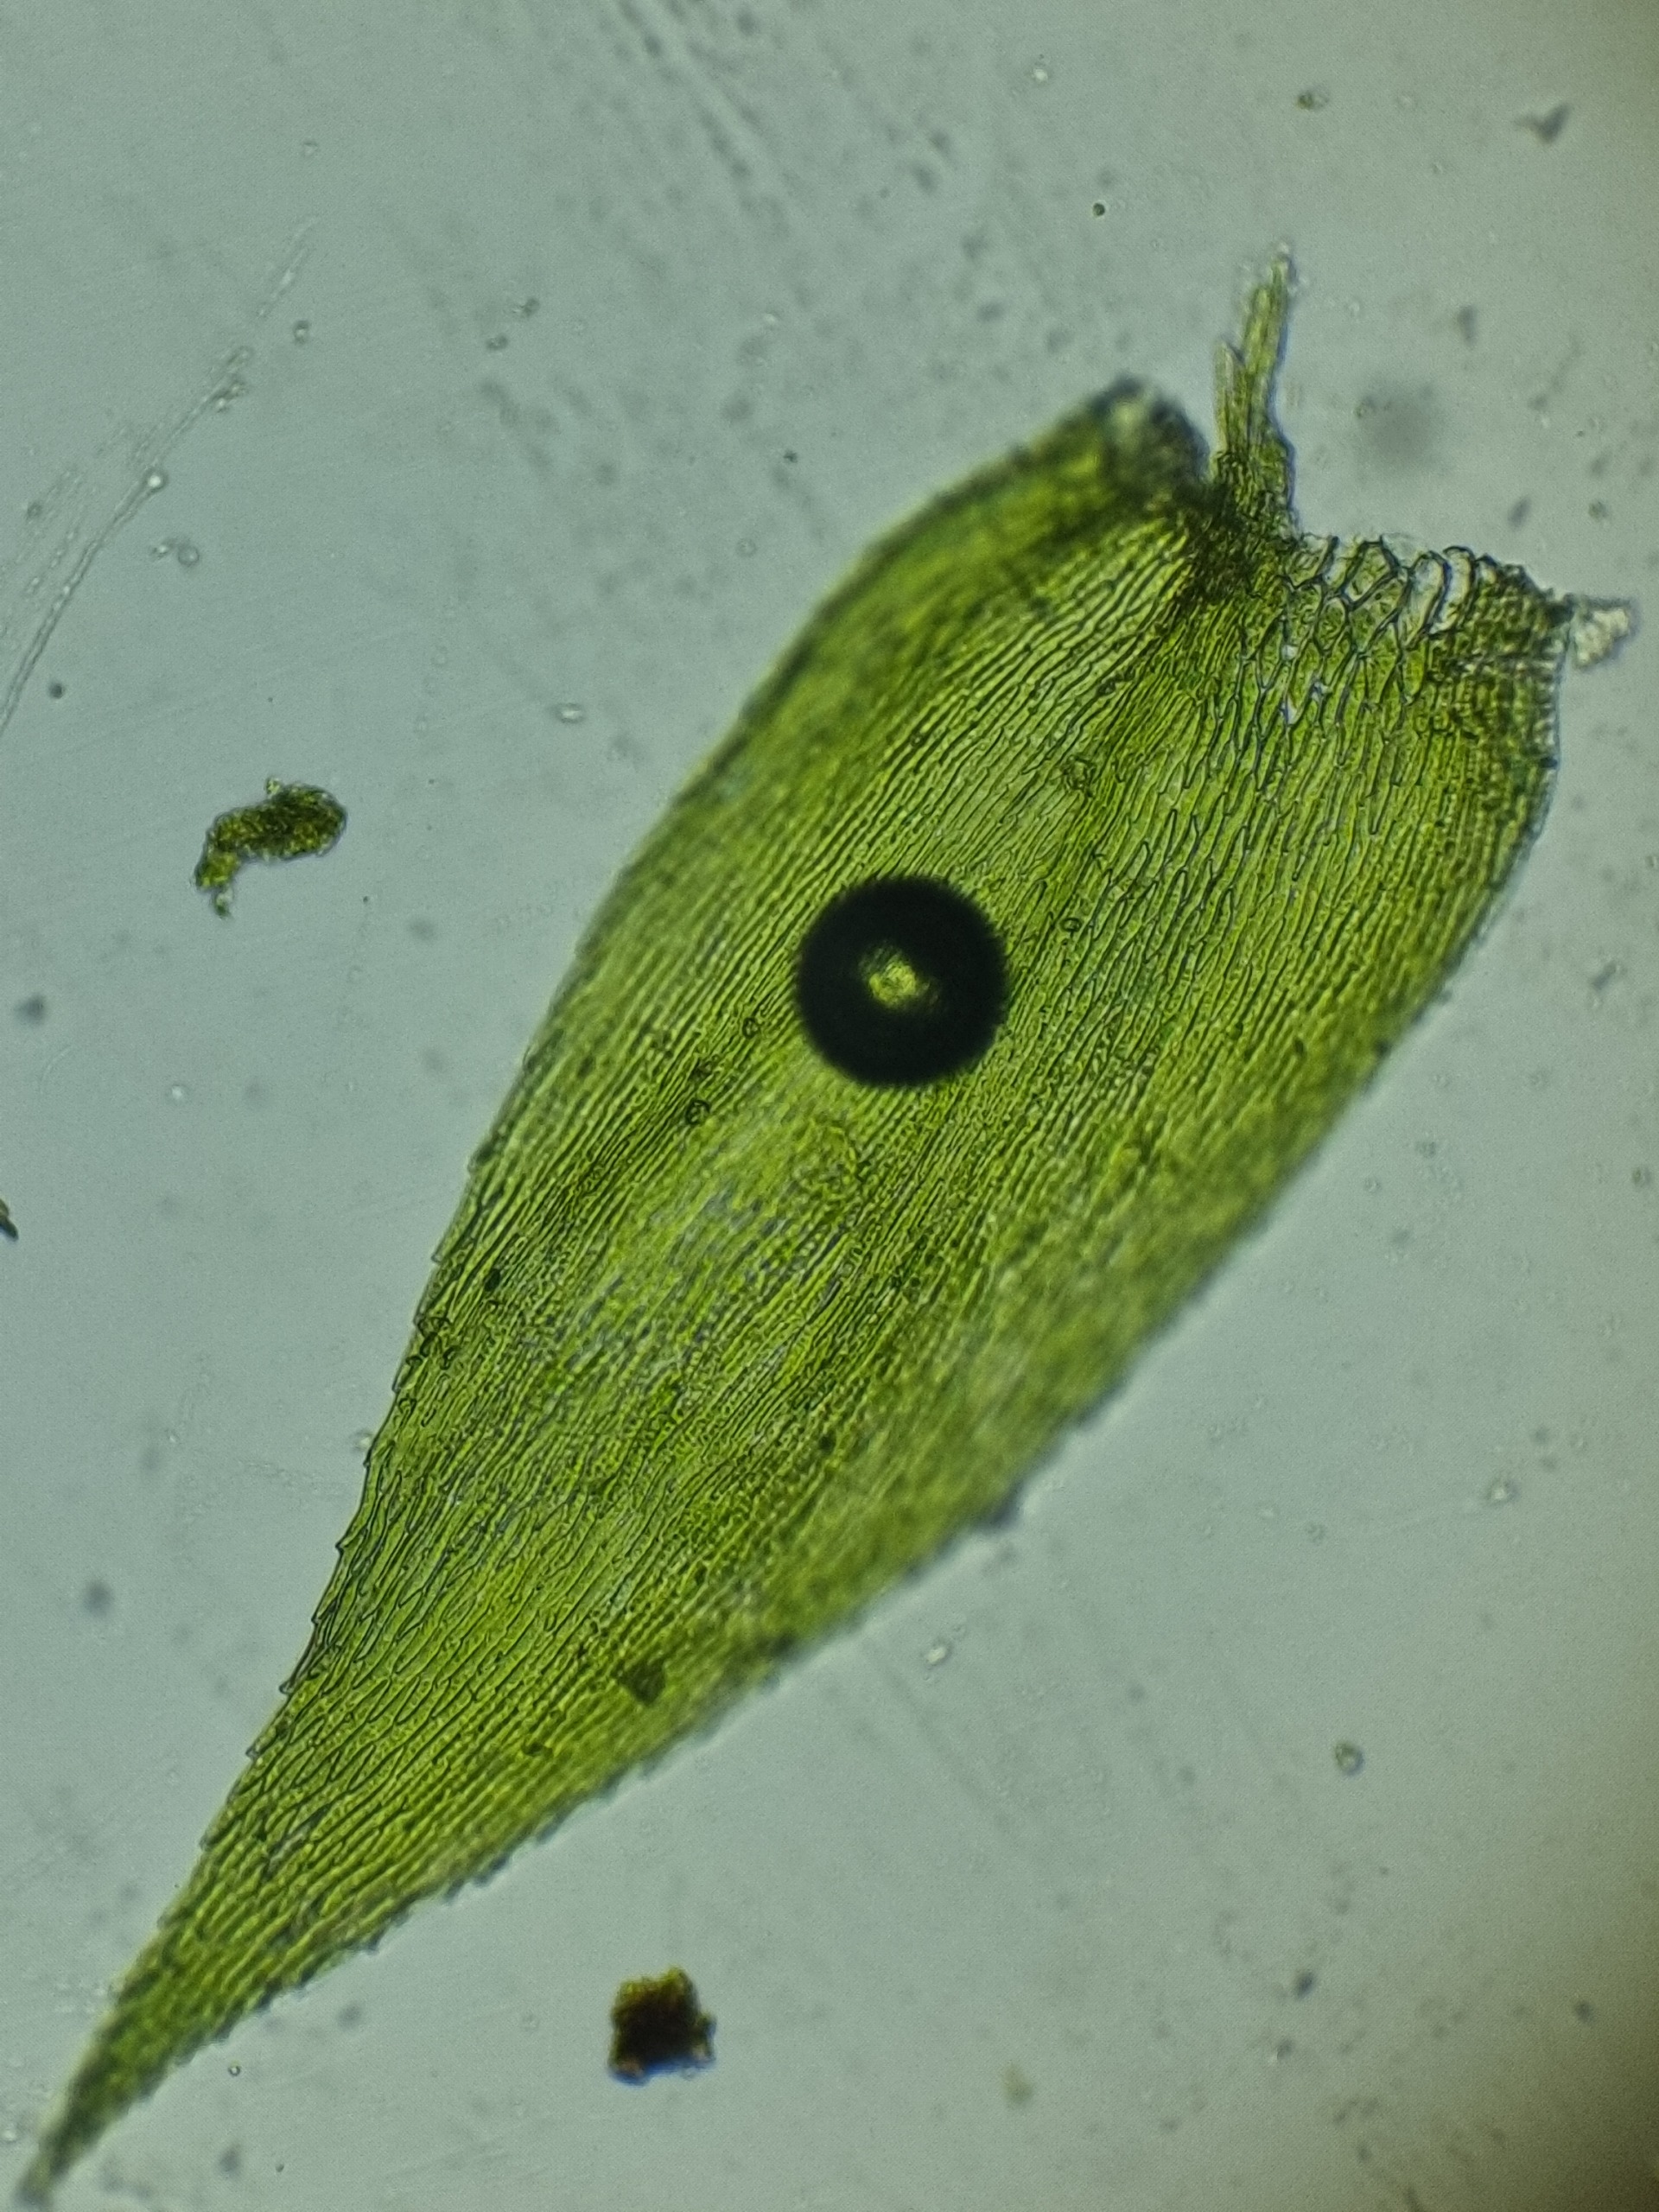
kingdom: Plantae
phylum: Bryophyta
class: Bryopsida
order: Hypnales
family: Brachytheciaceae
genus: Rhynchostegium
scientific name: Rhynchostegium confertum
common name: Skov-langnæb
